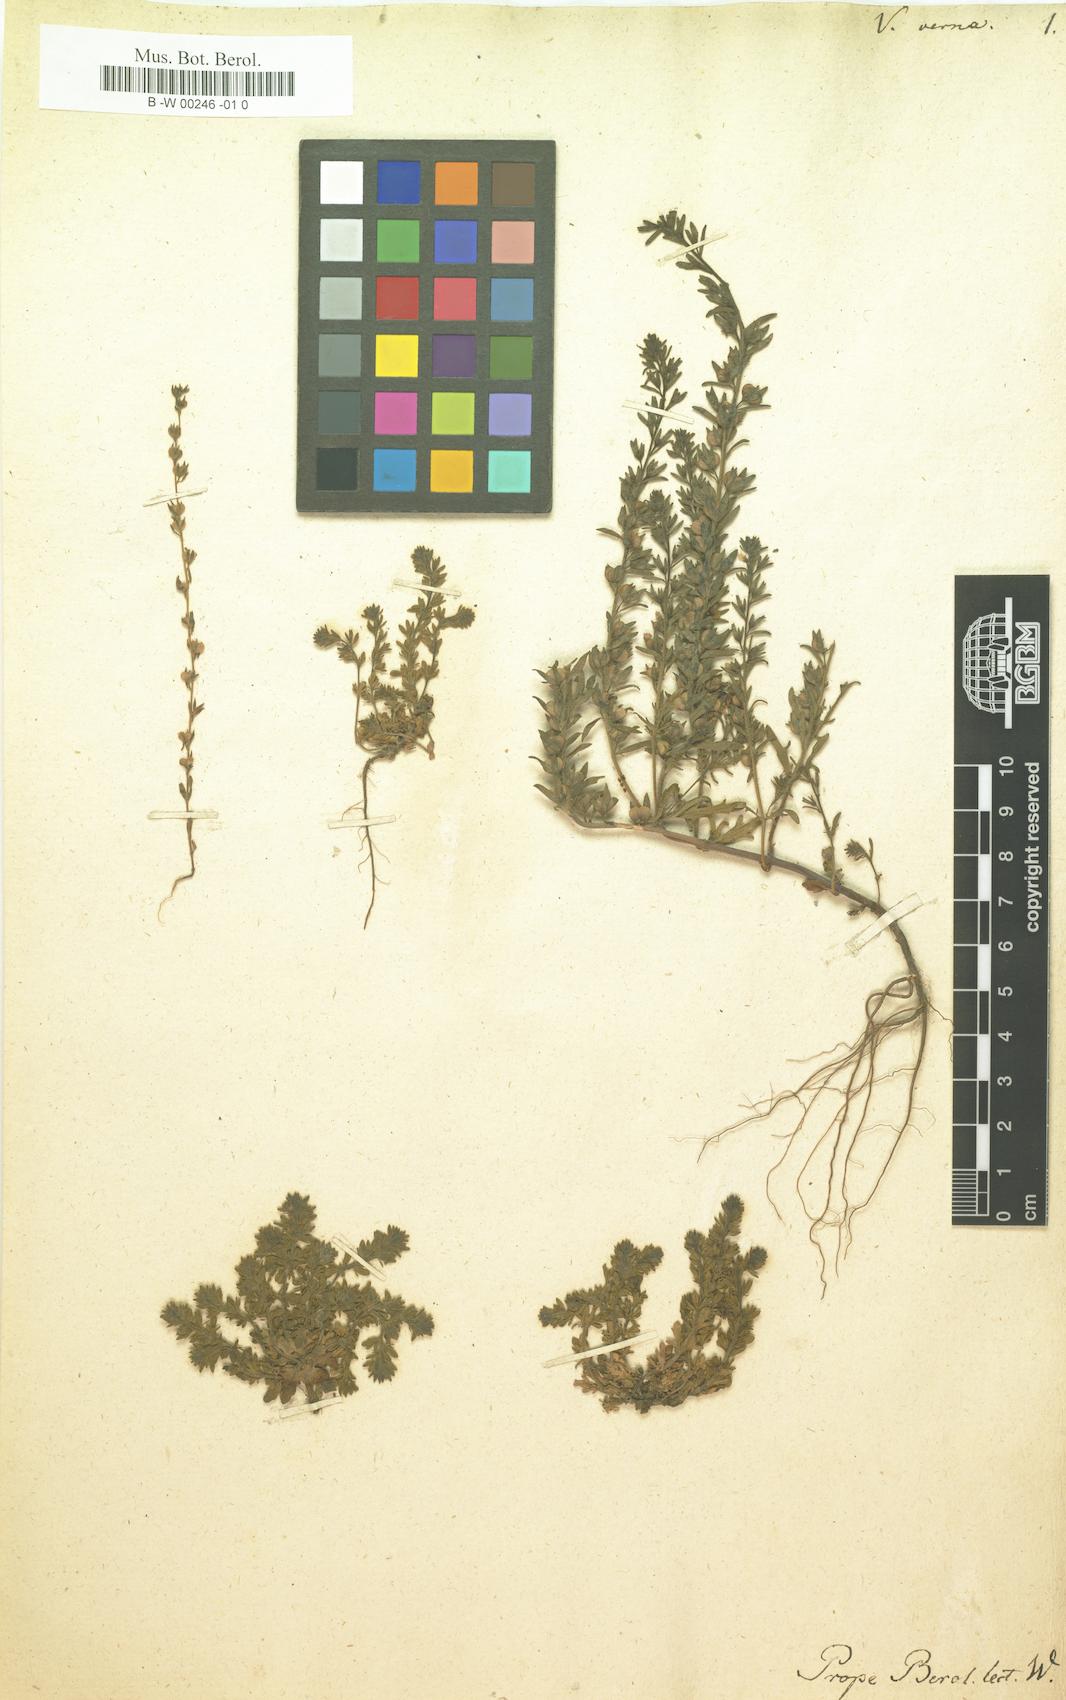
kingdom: Plantae
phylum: Tracheophyta
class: Magnoliopsida
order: Lamiales
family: Plantaginaceae
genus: Veronica
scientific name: Veronica verna
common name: Spring speedwell
